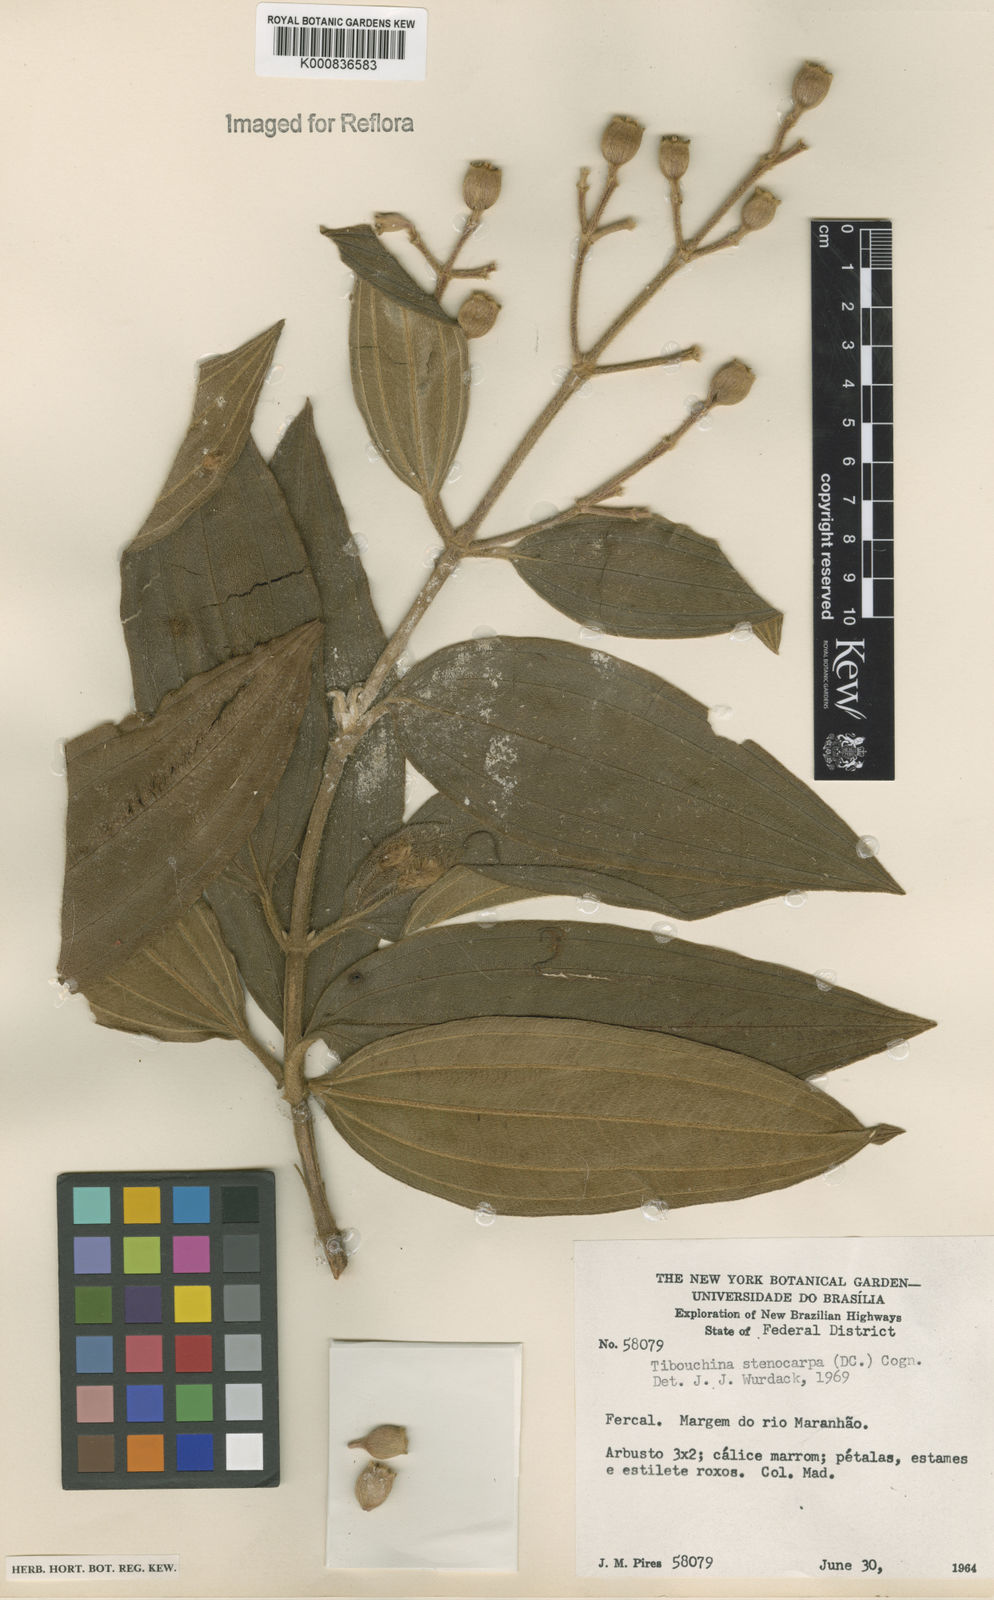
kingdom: Plantae
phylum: Tracheophyta
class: Magnoliopsida
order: Myrtales
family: Melastomataceae
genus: Pleroma
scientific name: Pleroma stenocarpum
